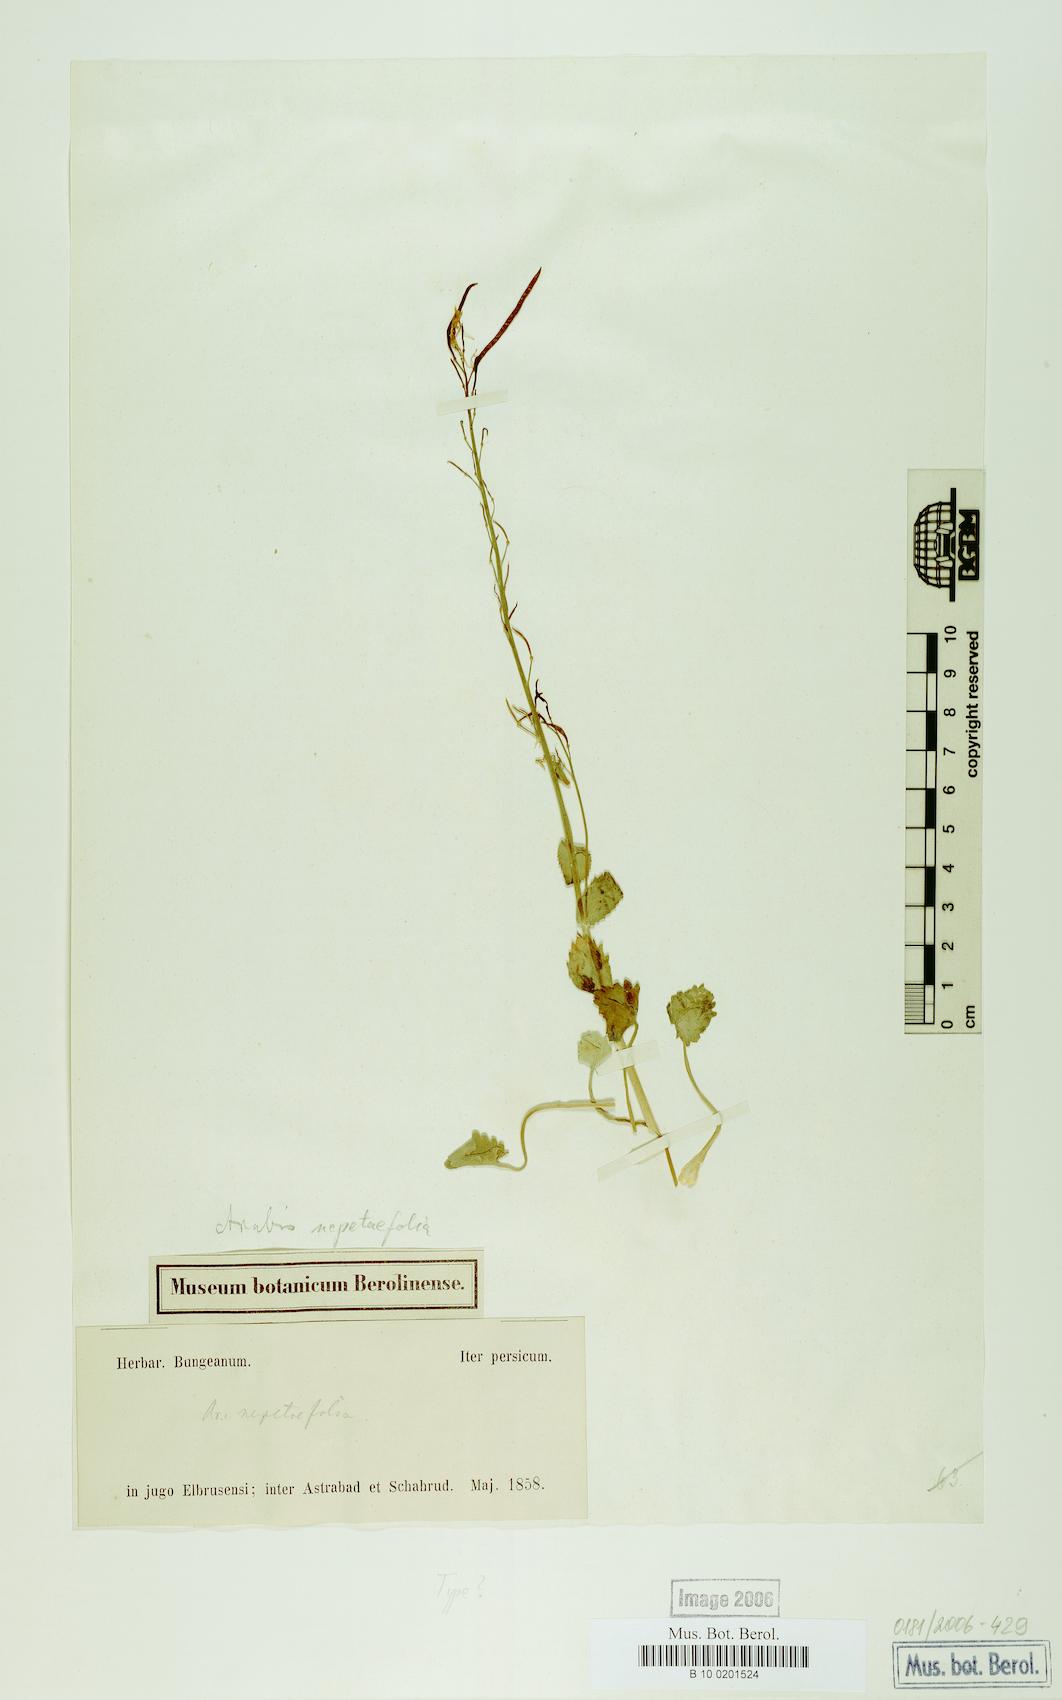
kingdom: Plantae
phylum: Tracheophyta
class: Magnoliopsida
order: Brassicales
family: Brassicaceae
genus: Arabis
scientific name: Arabis nepetifolia
